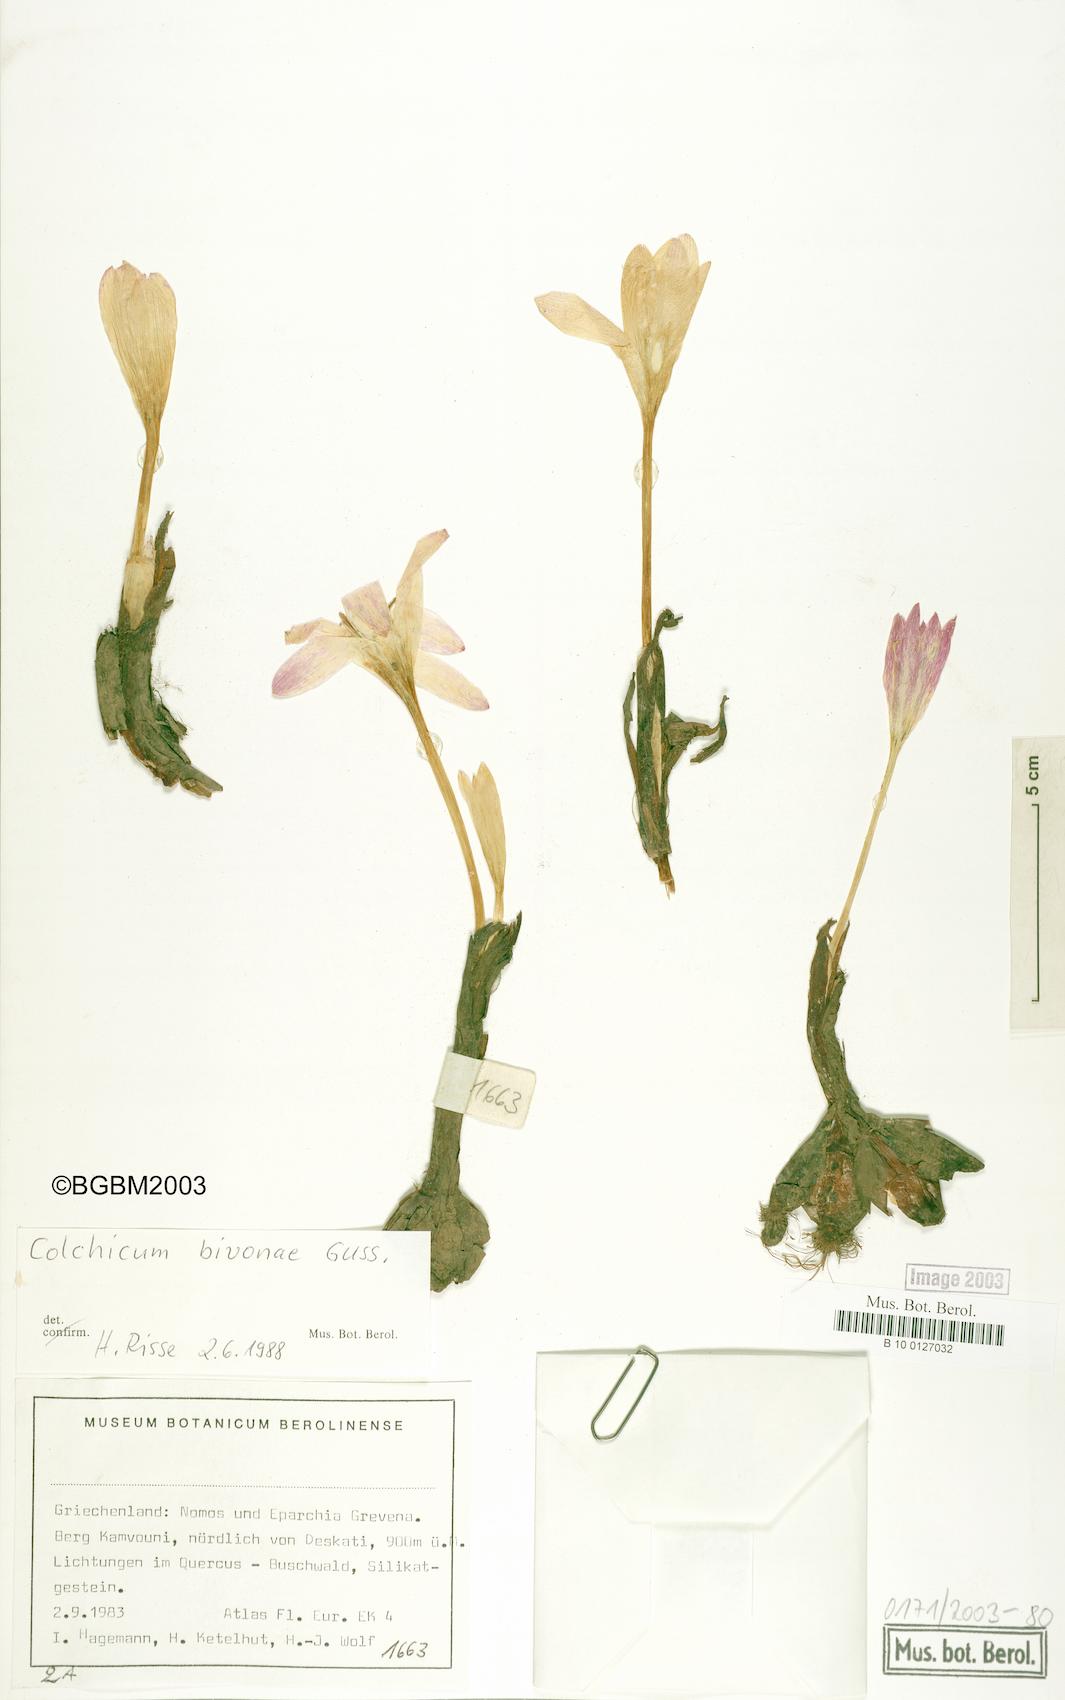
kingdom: Plantae
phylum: Tracheophyta
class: Liliopsida
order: Liliales
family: Colchicaceae
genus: Colchicum
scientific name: Colchicum bivonae
